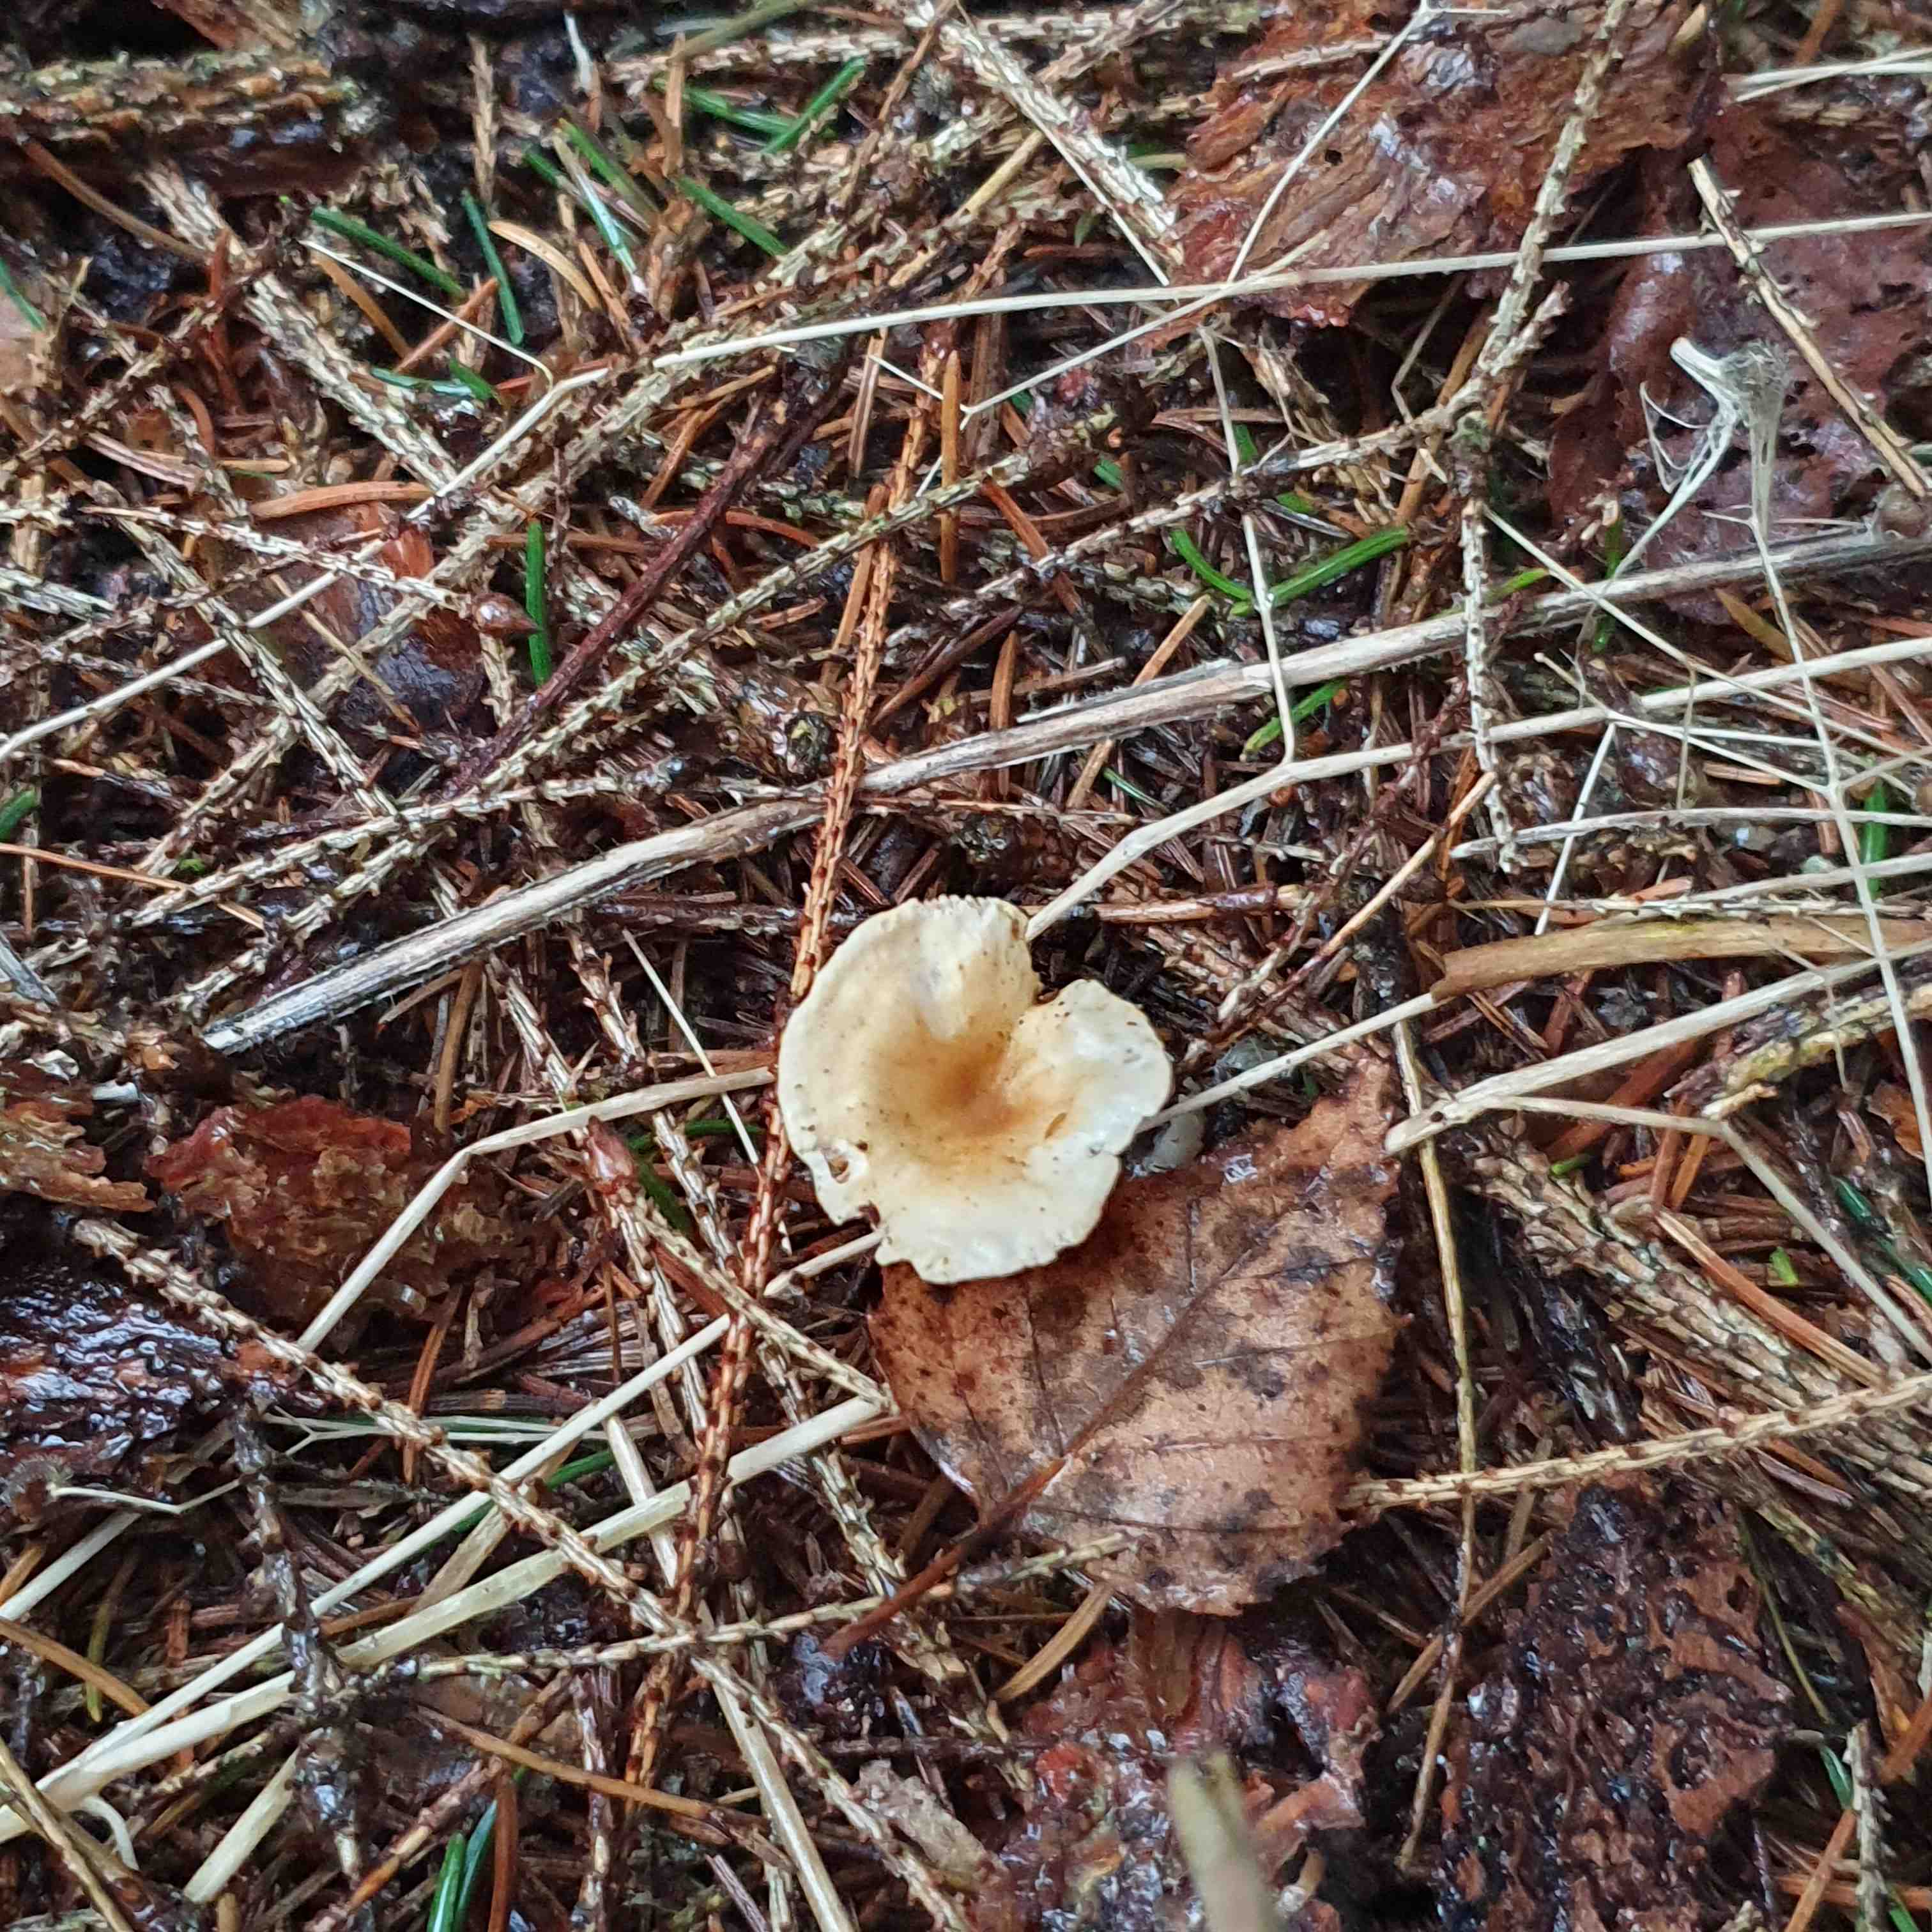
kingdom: Fungi
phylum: Basidiomycota
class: Agaricomycetes
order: Boletales
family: Hygrophoropsidaceae
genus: Hygrophoropsis
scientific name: Hygrophoropsis aurantiaca
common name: almindelig orangekantarel
